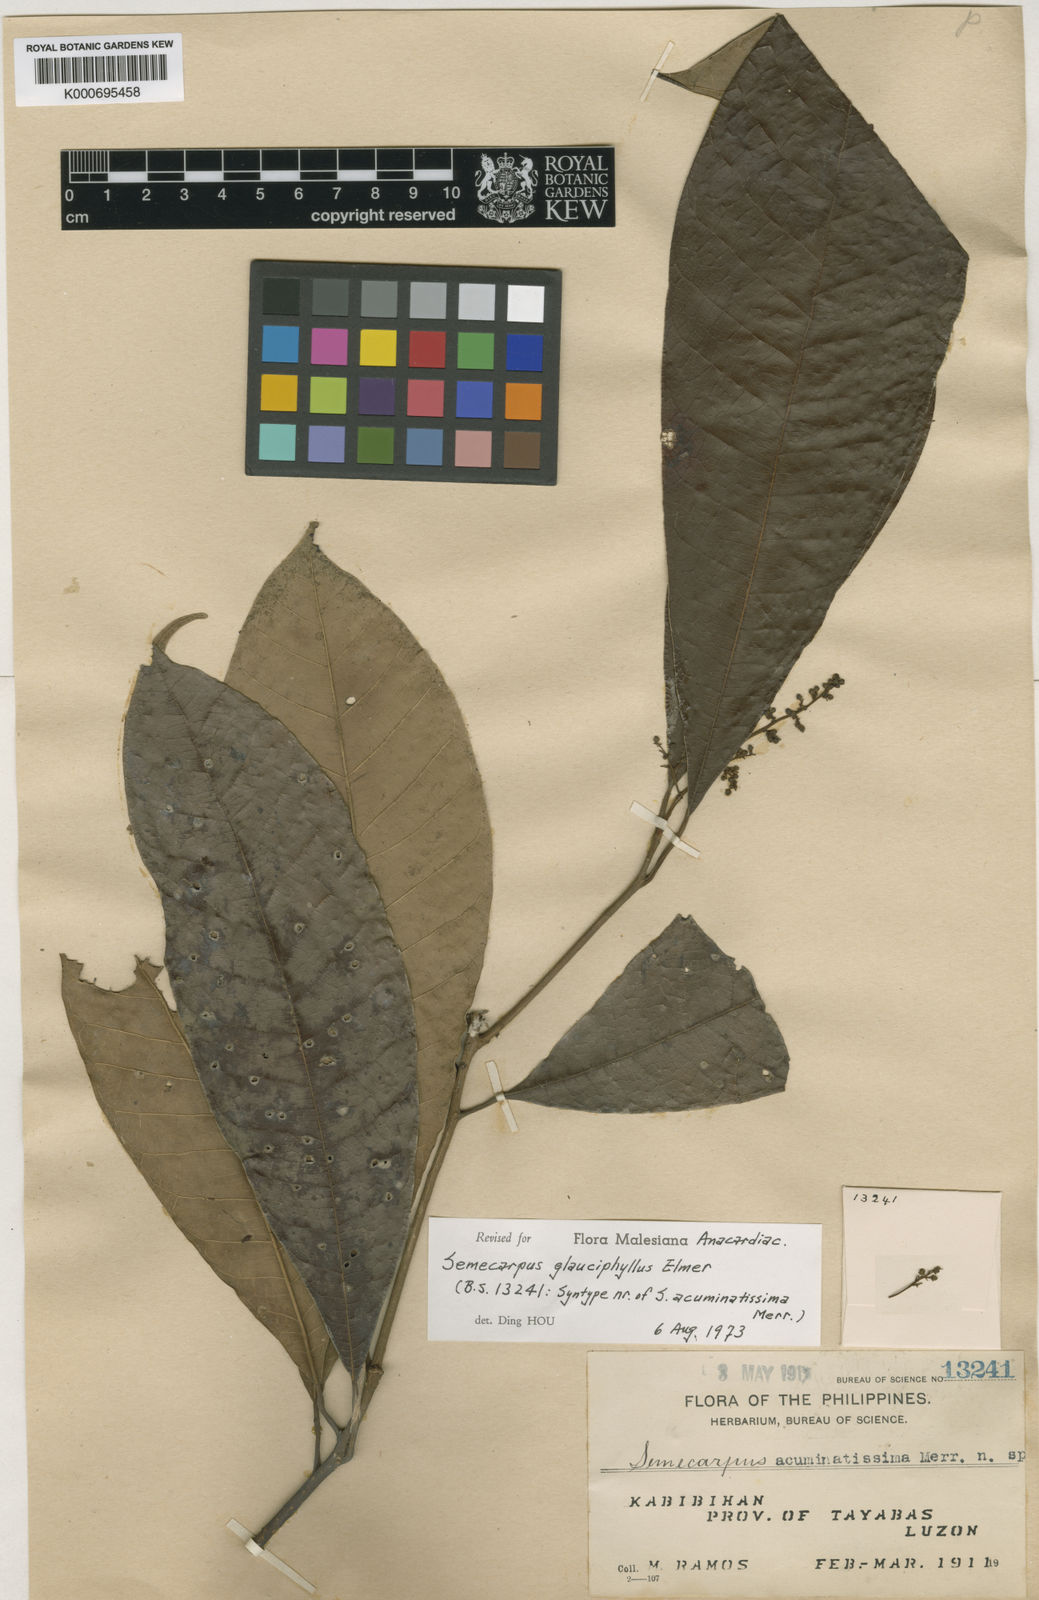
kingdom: Plantae
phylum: Tracheophyta
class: Magnoliopsida
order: Sapindales
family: Anacardiaceae
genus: Semecarpus
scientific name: Semecarpus glauciphyllus
